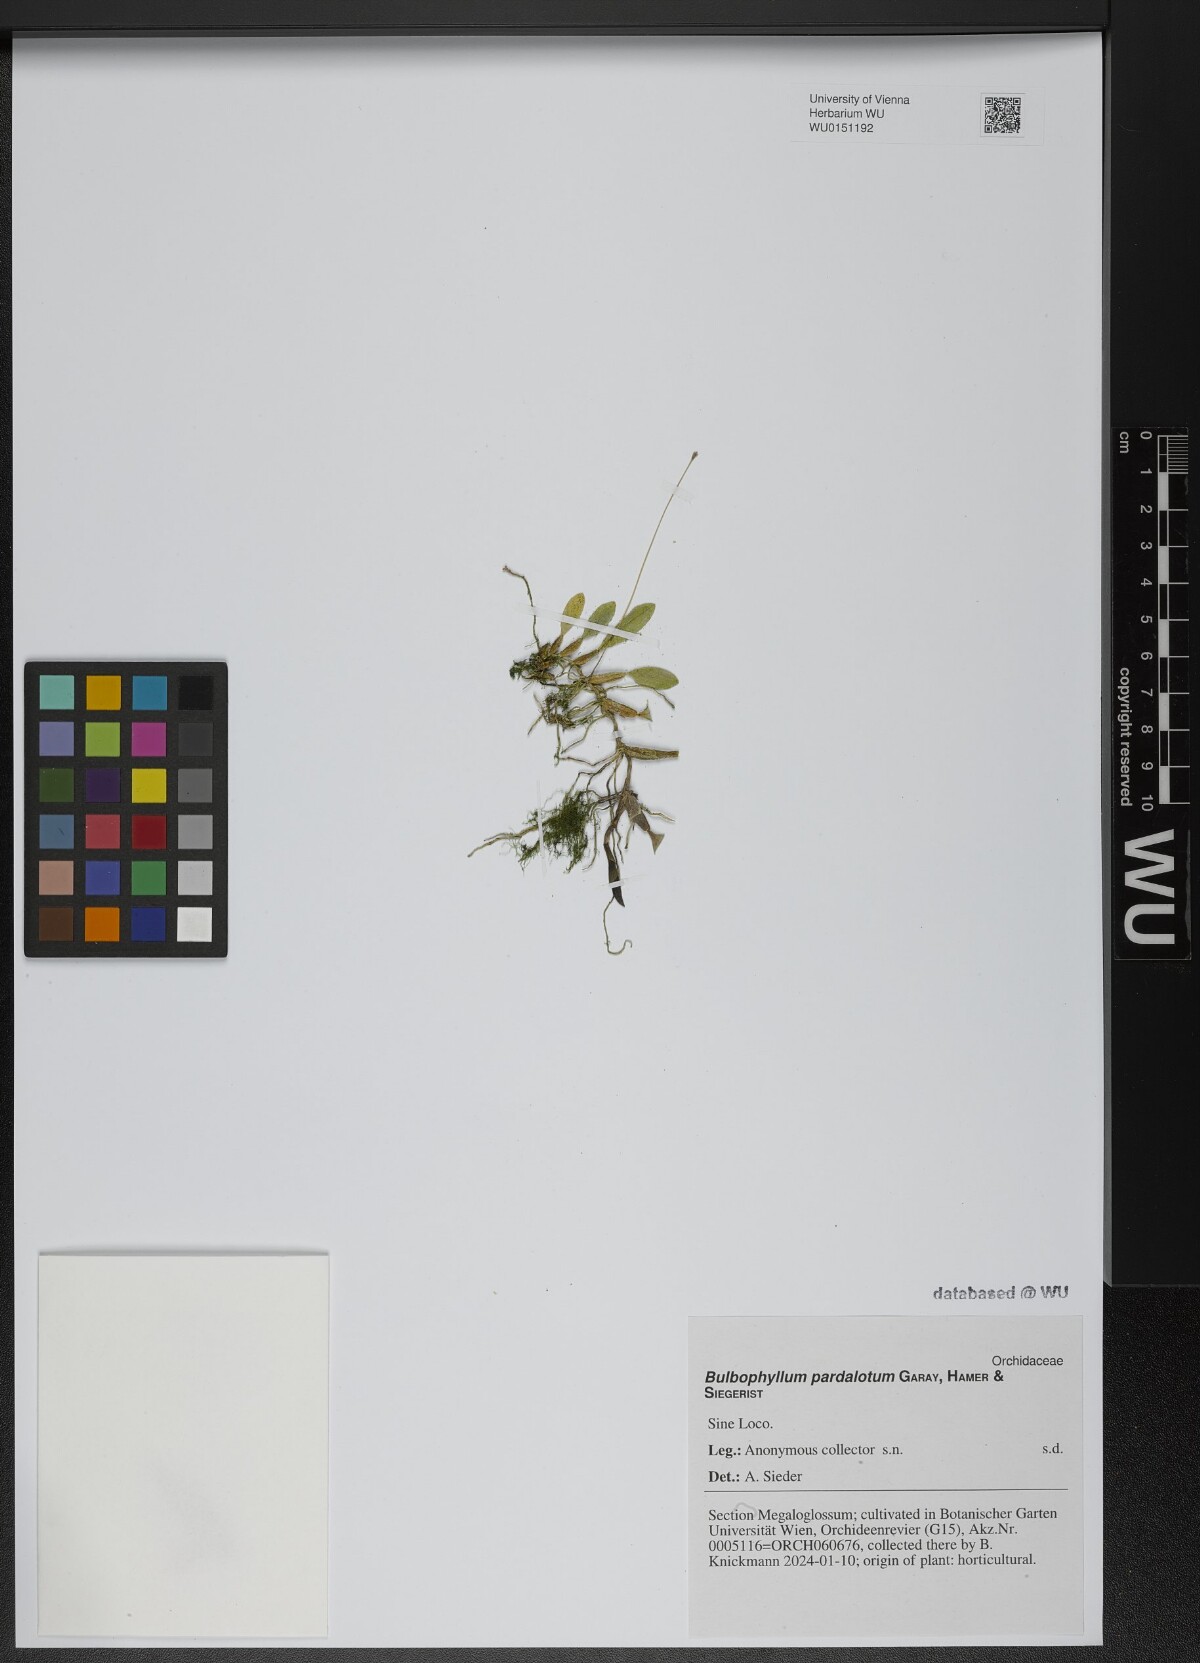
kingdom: Plantae
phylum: Tracheophyta
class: Liliopsida
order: Asparagales
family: Orchidaceae
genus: Bulbophyllum
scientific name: Bulbophyllum pardalotum
